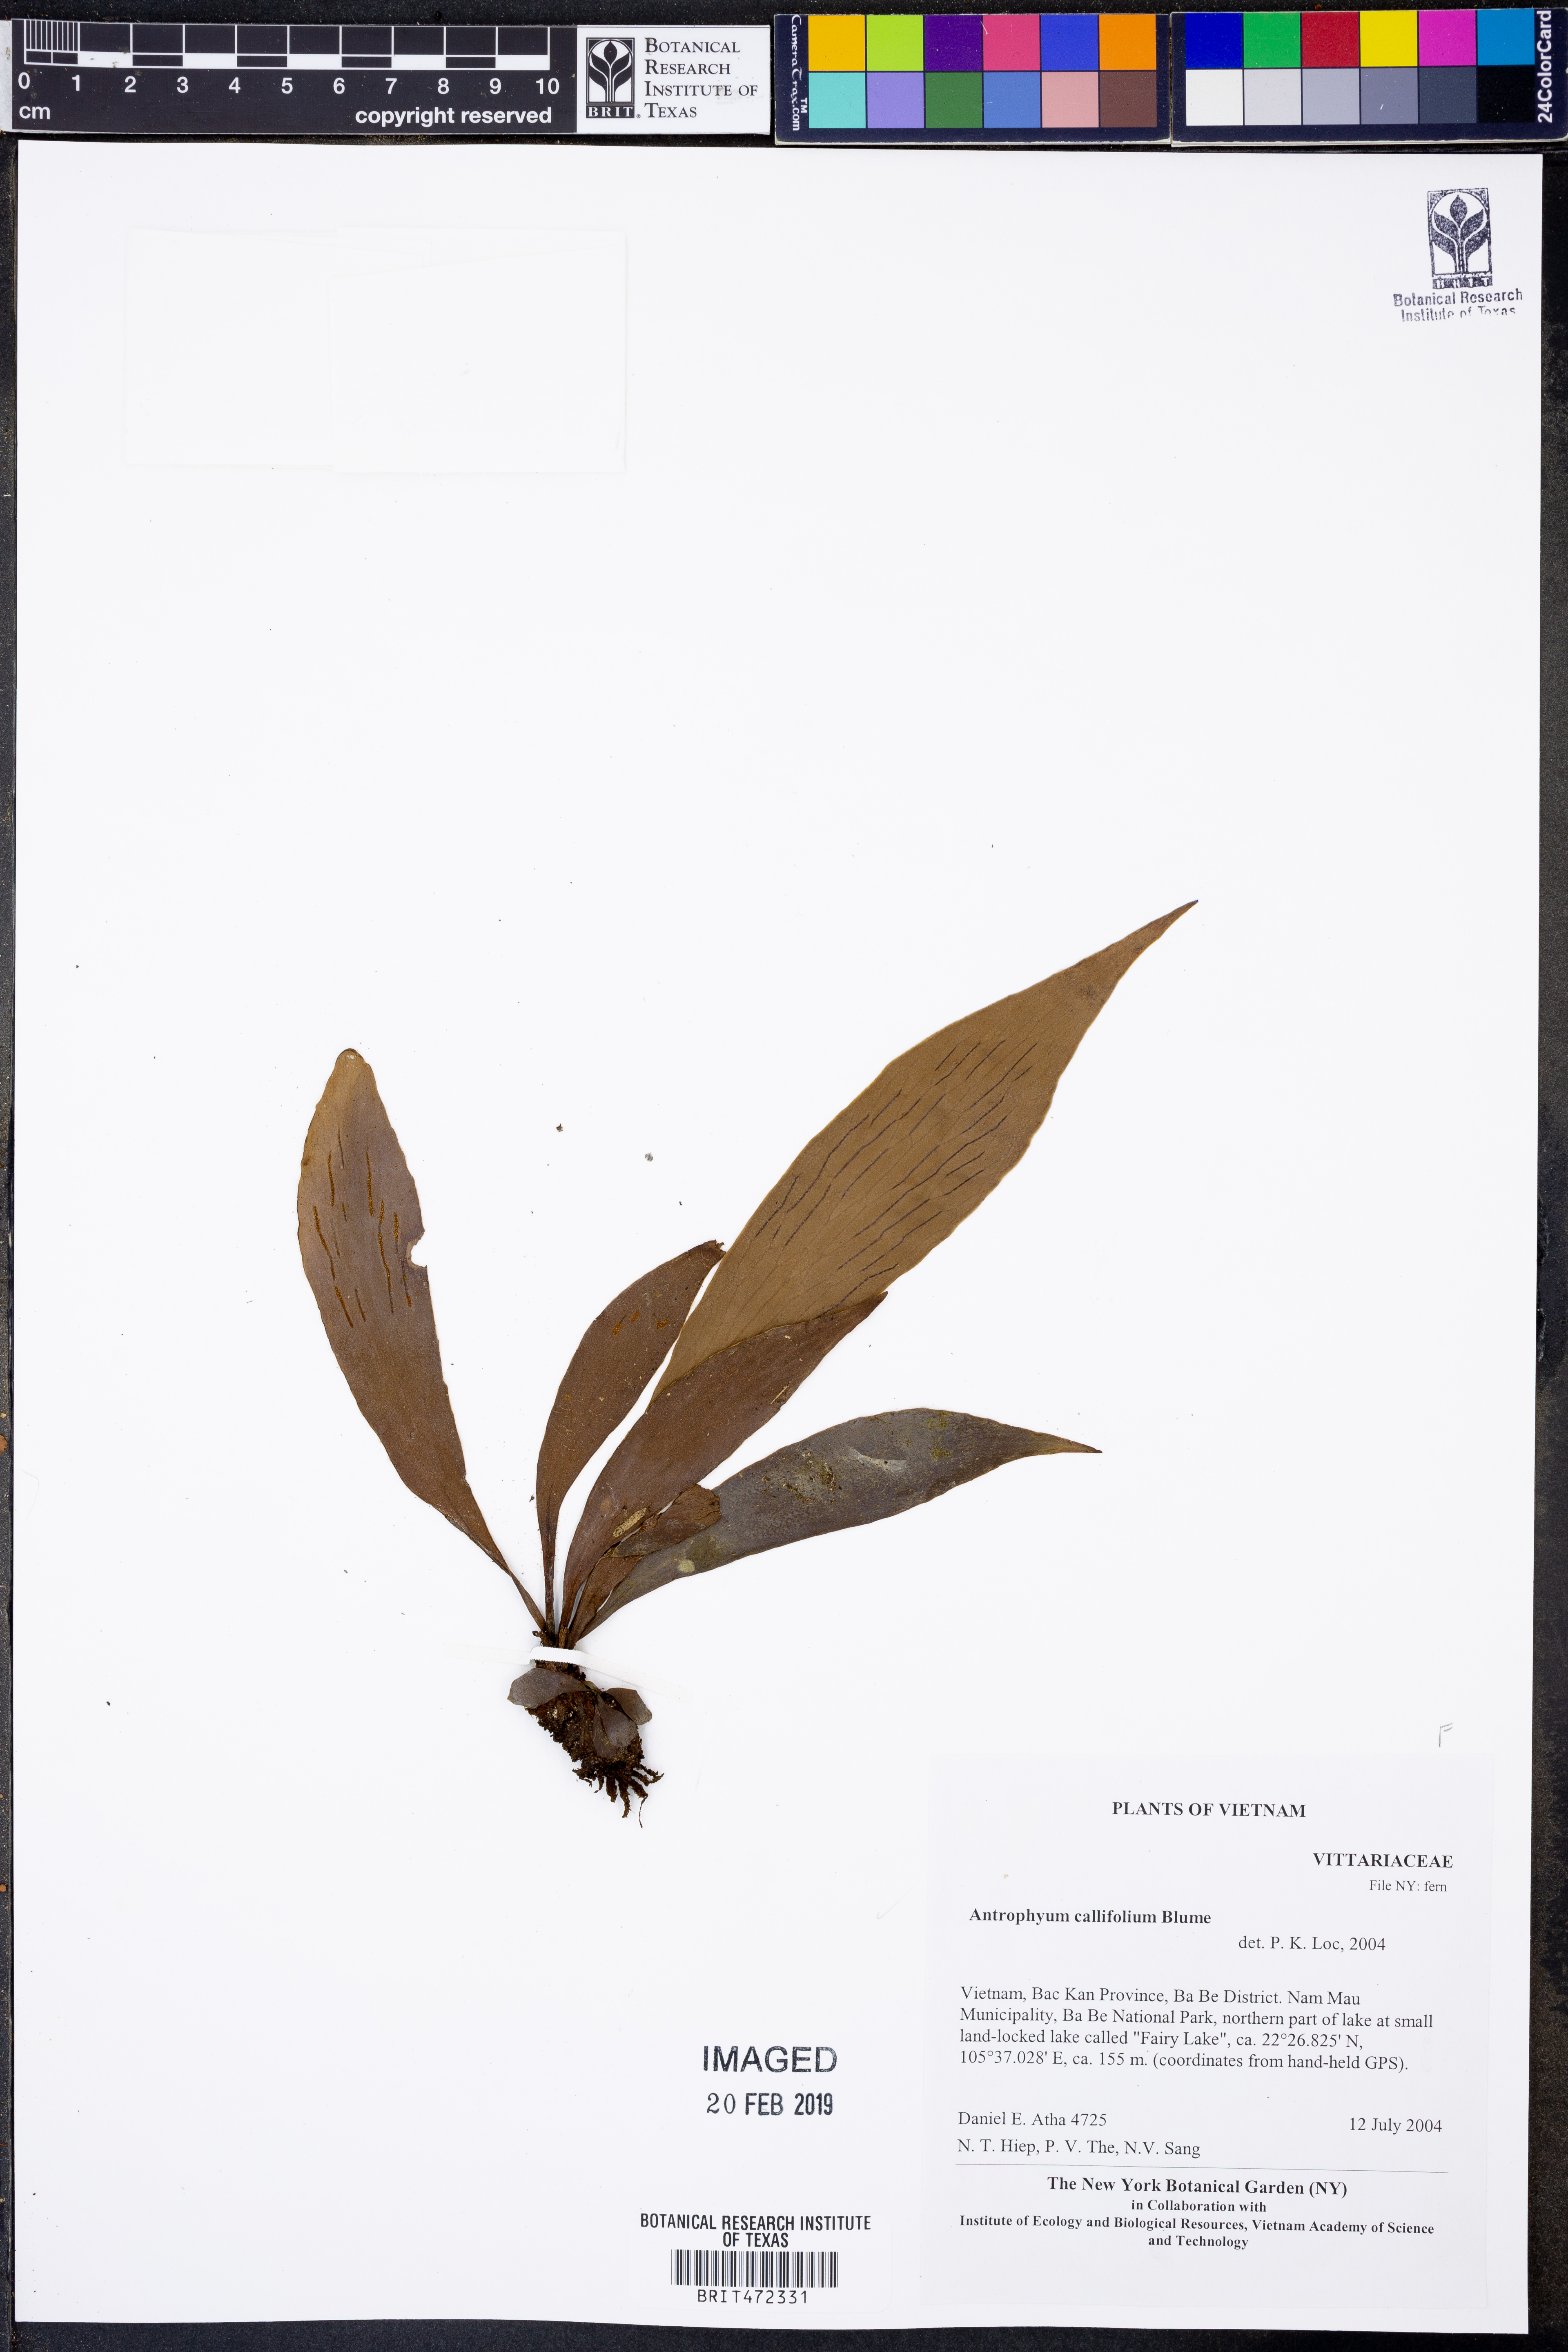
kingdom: Plantae
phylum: Tracheophyta
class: Polypodiopsida
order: Polypodiales
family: Pteridaceae
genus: Antrophyum
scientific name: Antrophyum callifolium
